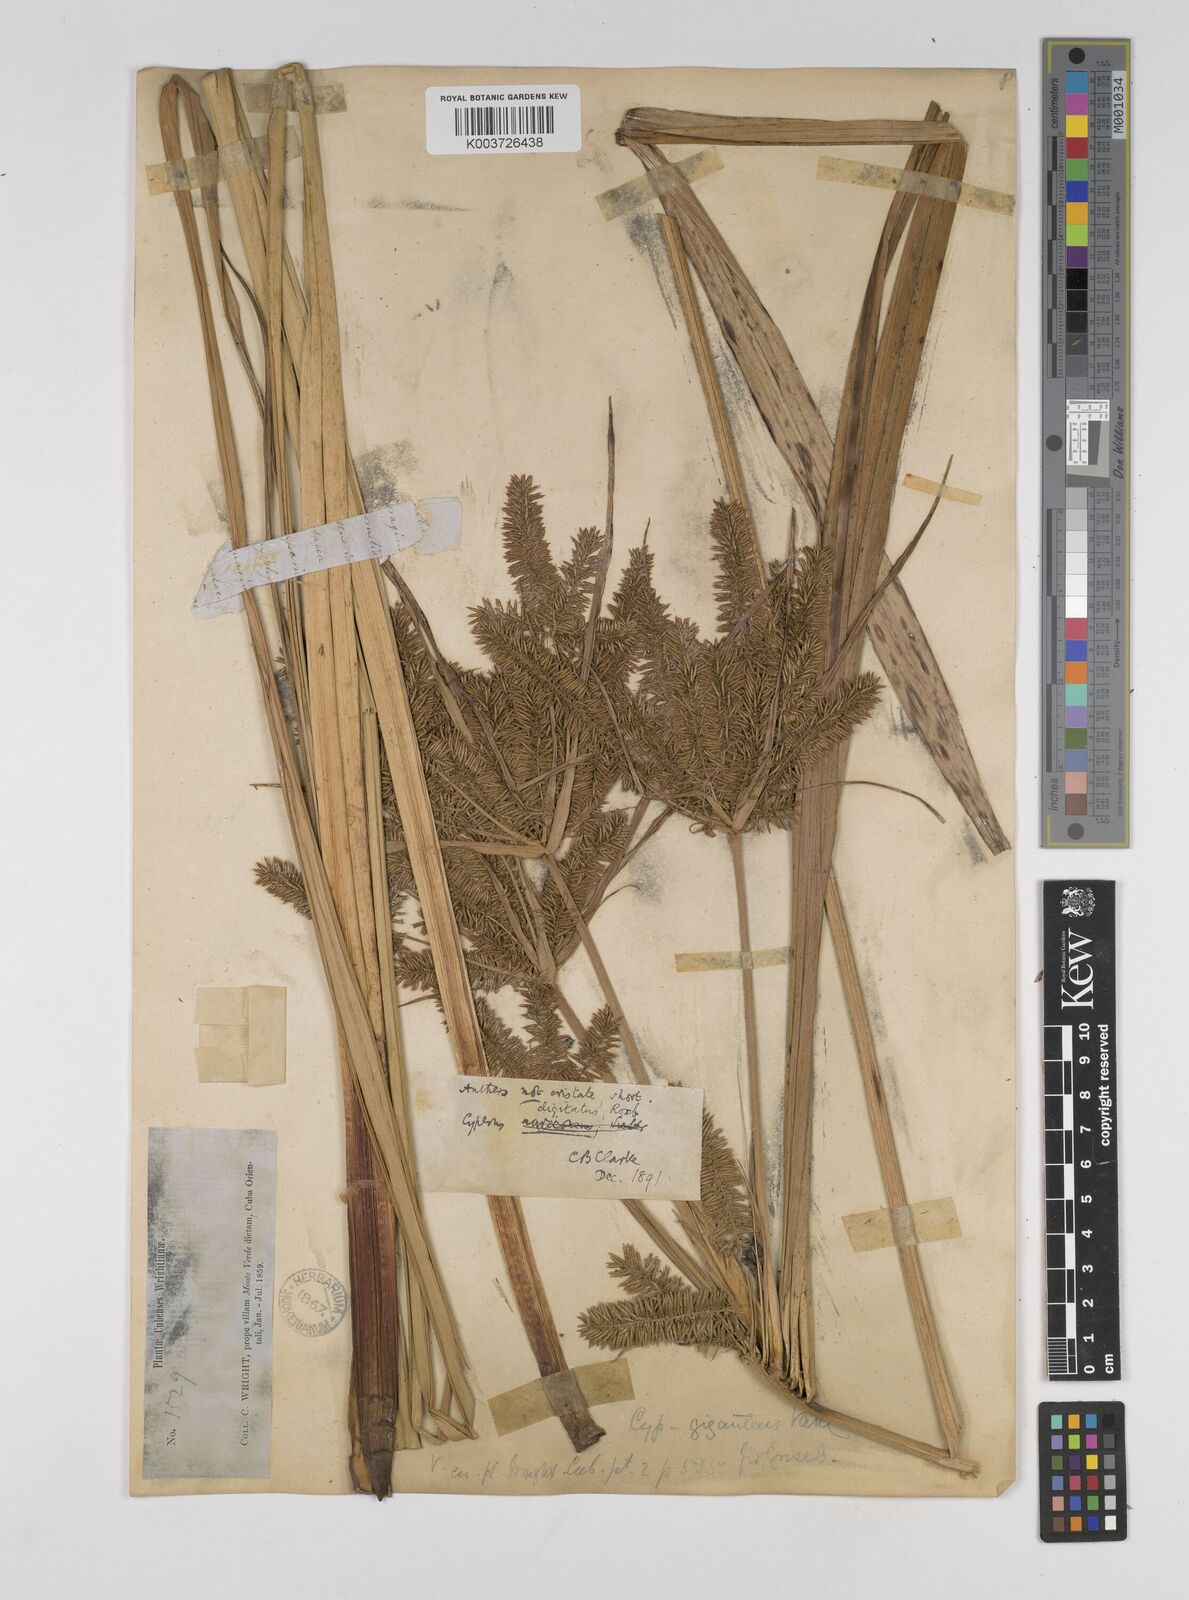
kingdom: Plantae
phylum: Tracheophyta
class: Liliopsida
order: Poales
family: Cyperaceae
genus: Cyperus
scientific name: Cyperus digitatus
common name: Finger flatsedge
